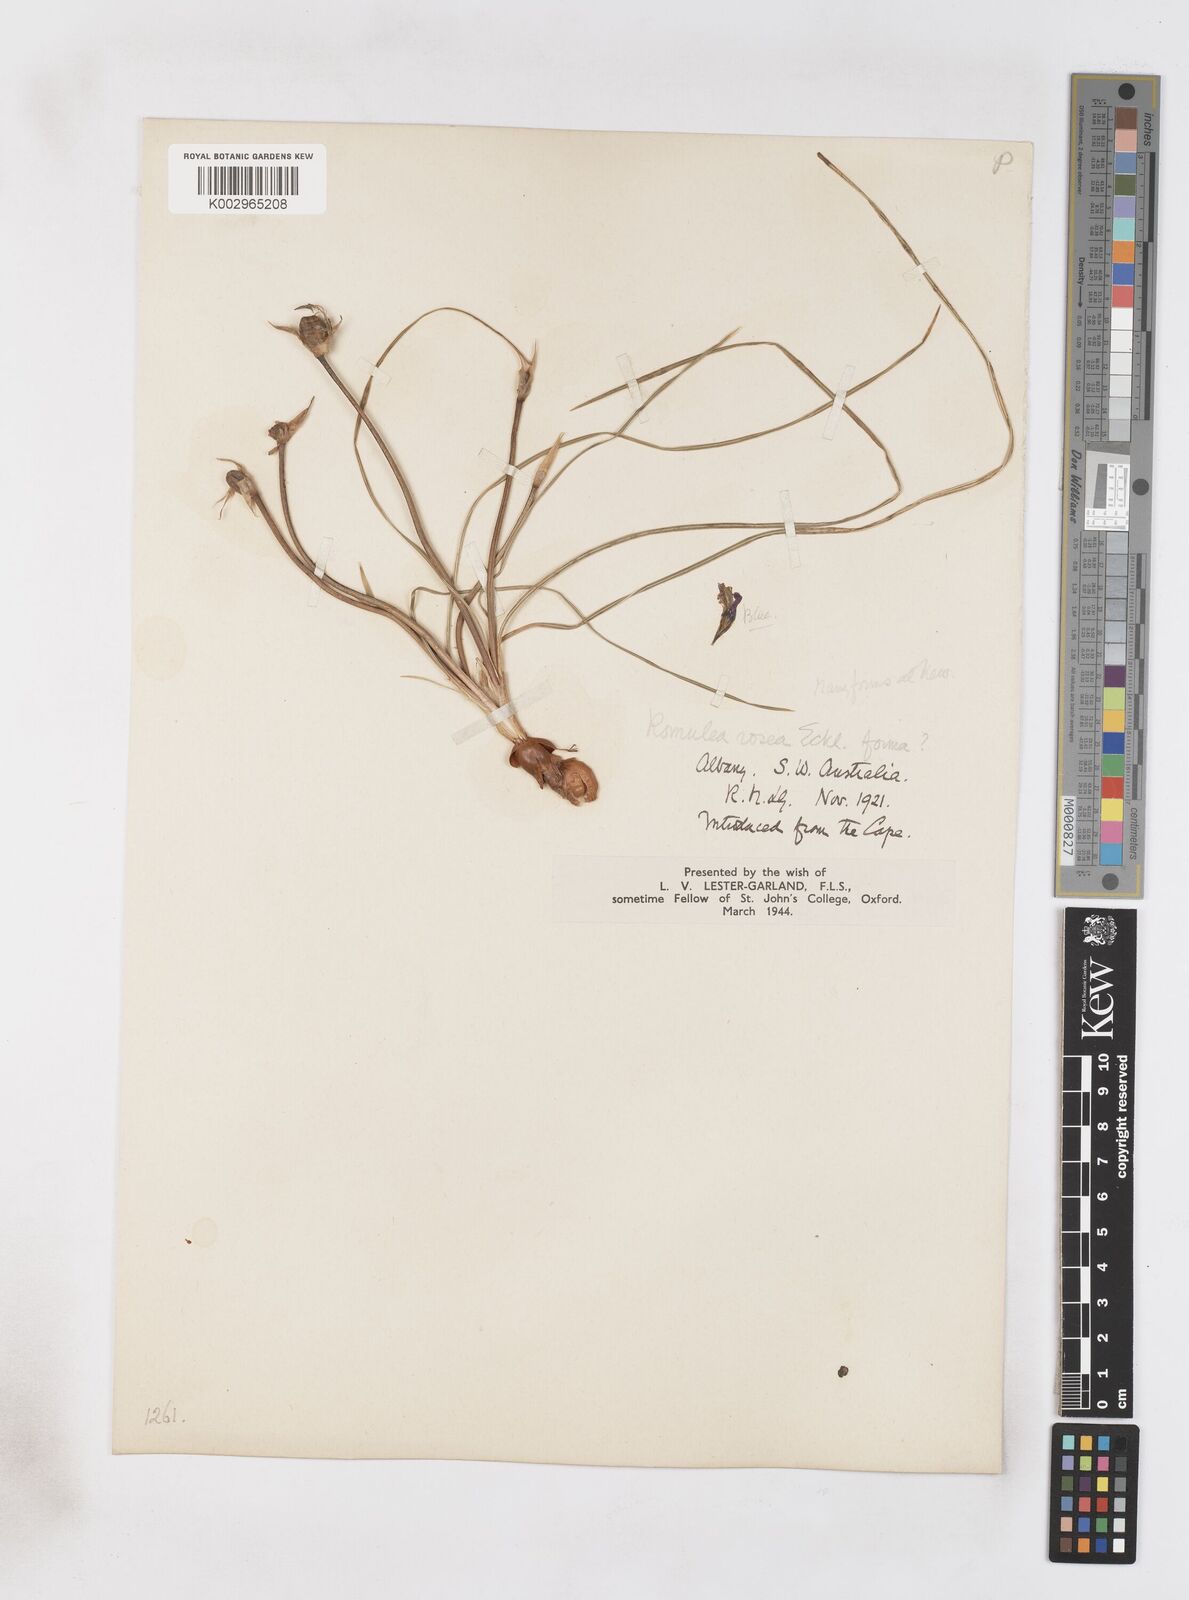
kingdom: Plantae
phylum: Tracheophyta
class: Liliopsida
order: Asparagales
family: Iridaceae
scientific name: Iridaceae
